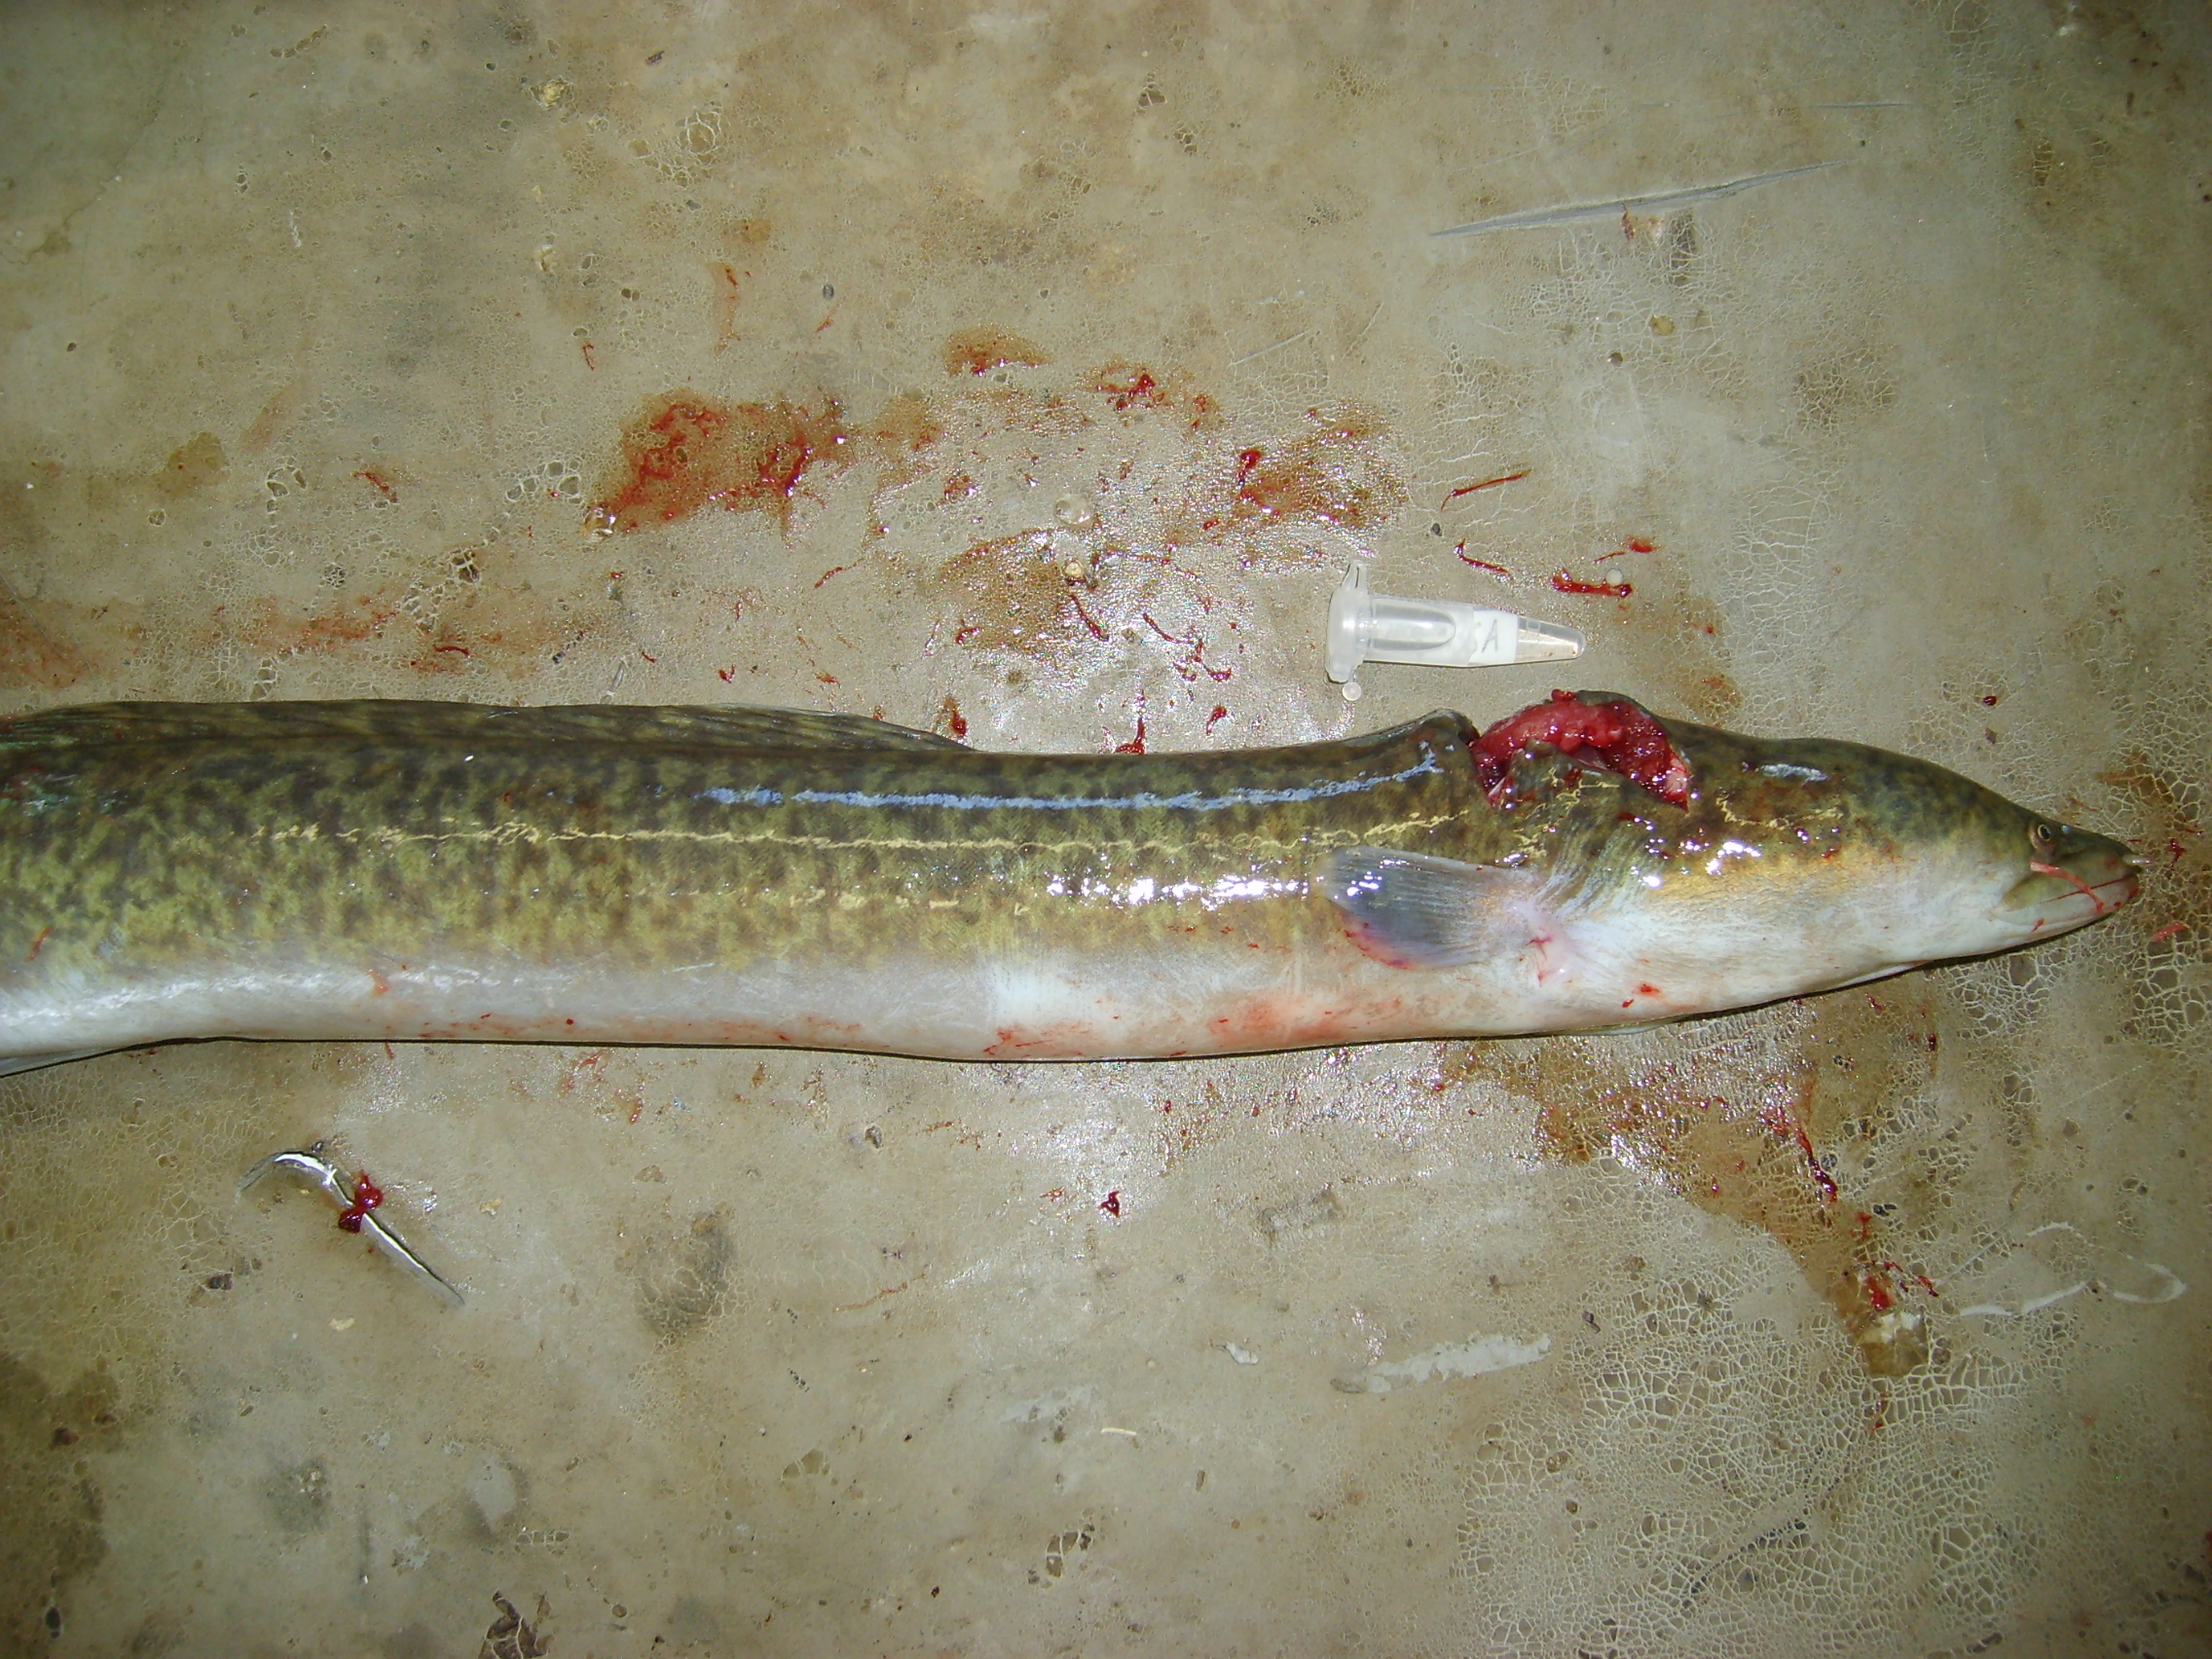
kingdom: Animalia
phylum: Chordata
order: Anguilliformes
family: Anguillidae
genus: Anguilla
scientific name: Anguilla marmorata
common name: Giant mottled eel
